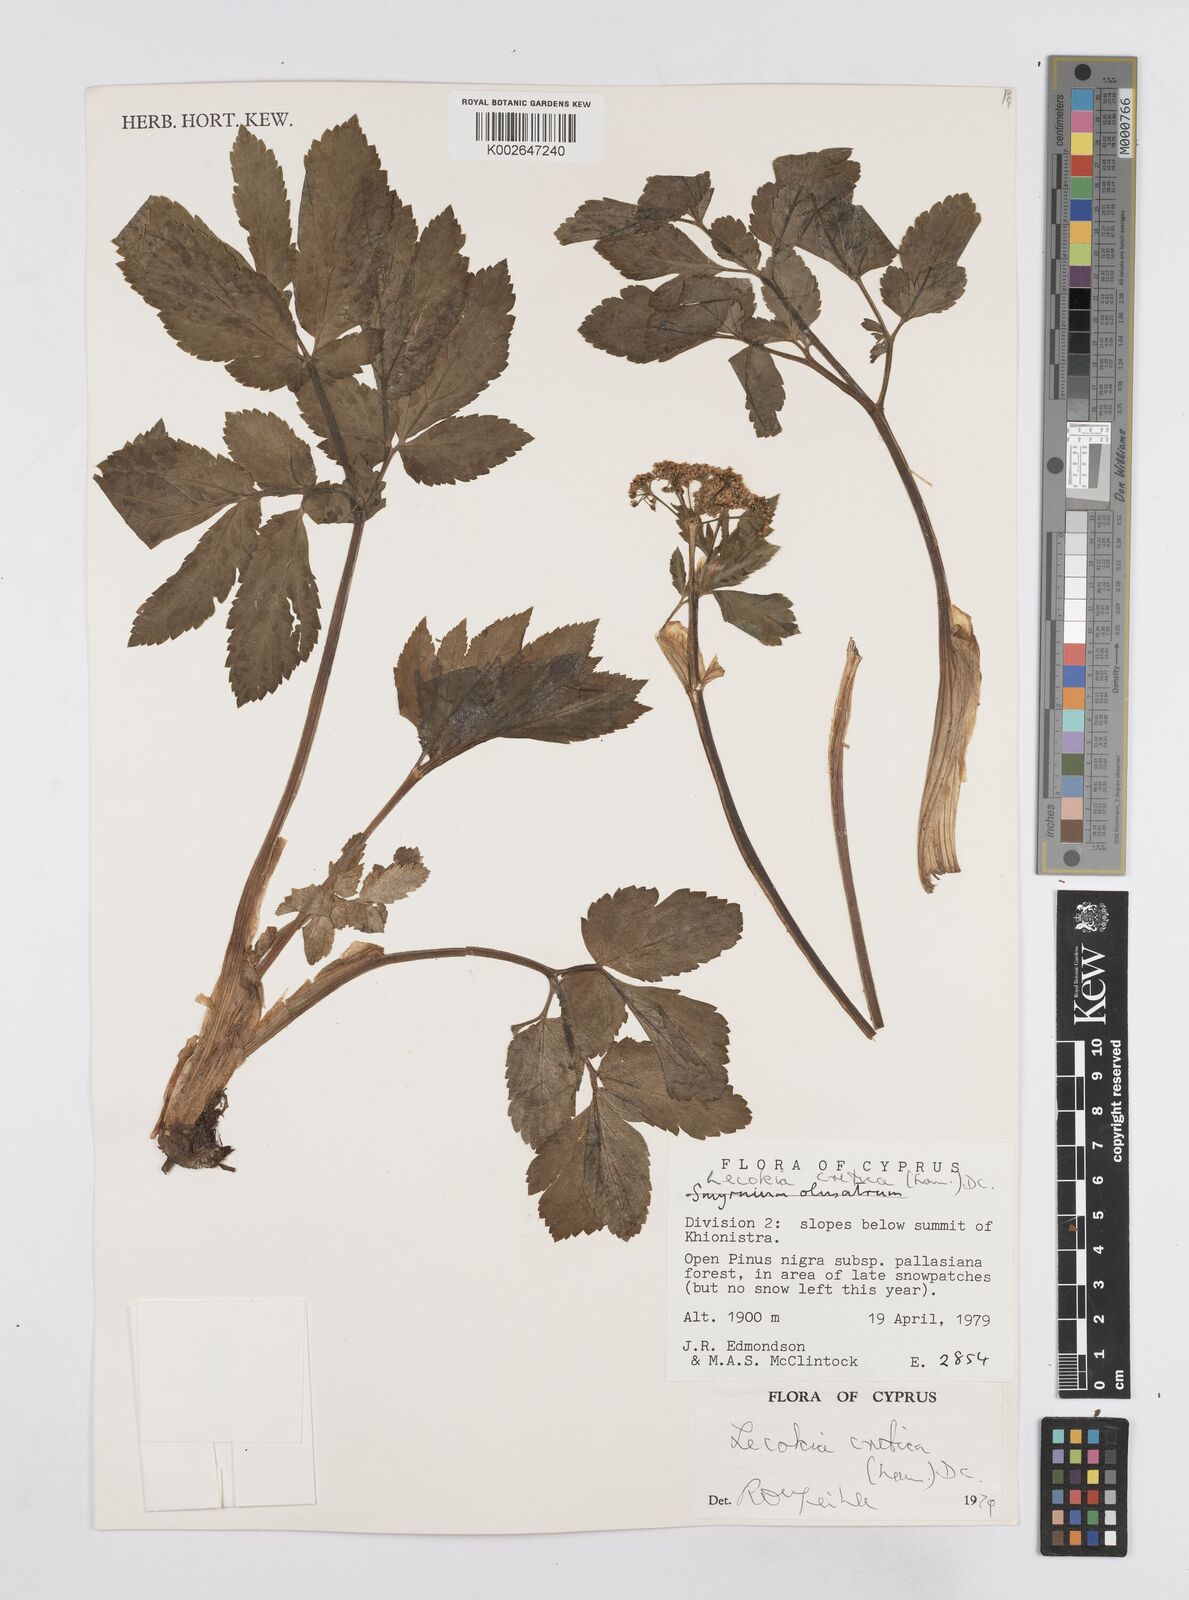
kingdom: Plantae
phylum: Tracheophyta
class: Magnoliopsida
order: Apiales
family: Apiaceae
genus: Lecokia
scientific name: Lecokia cretica
